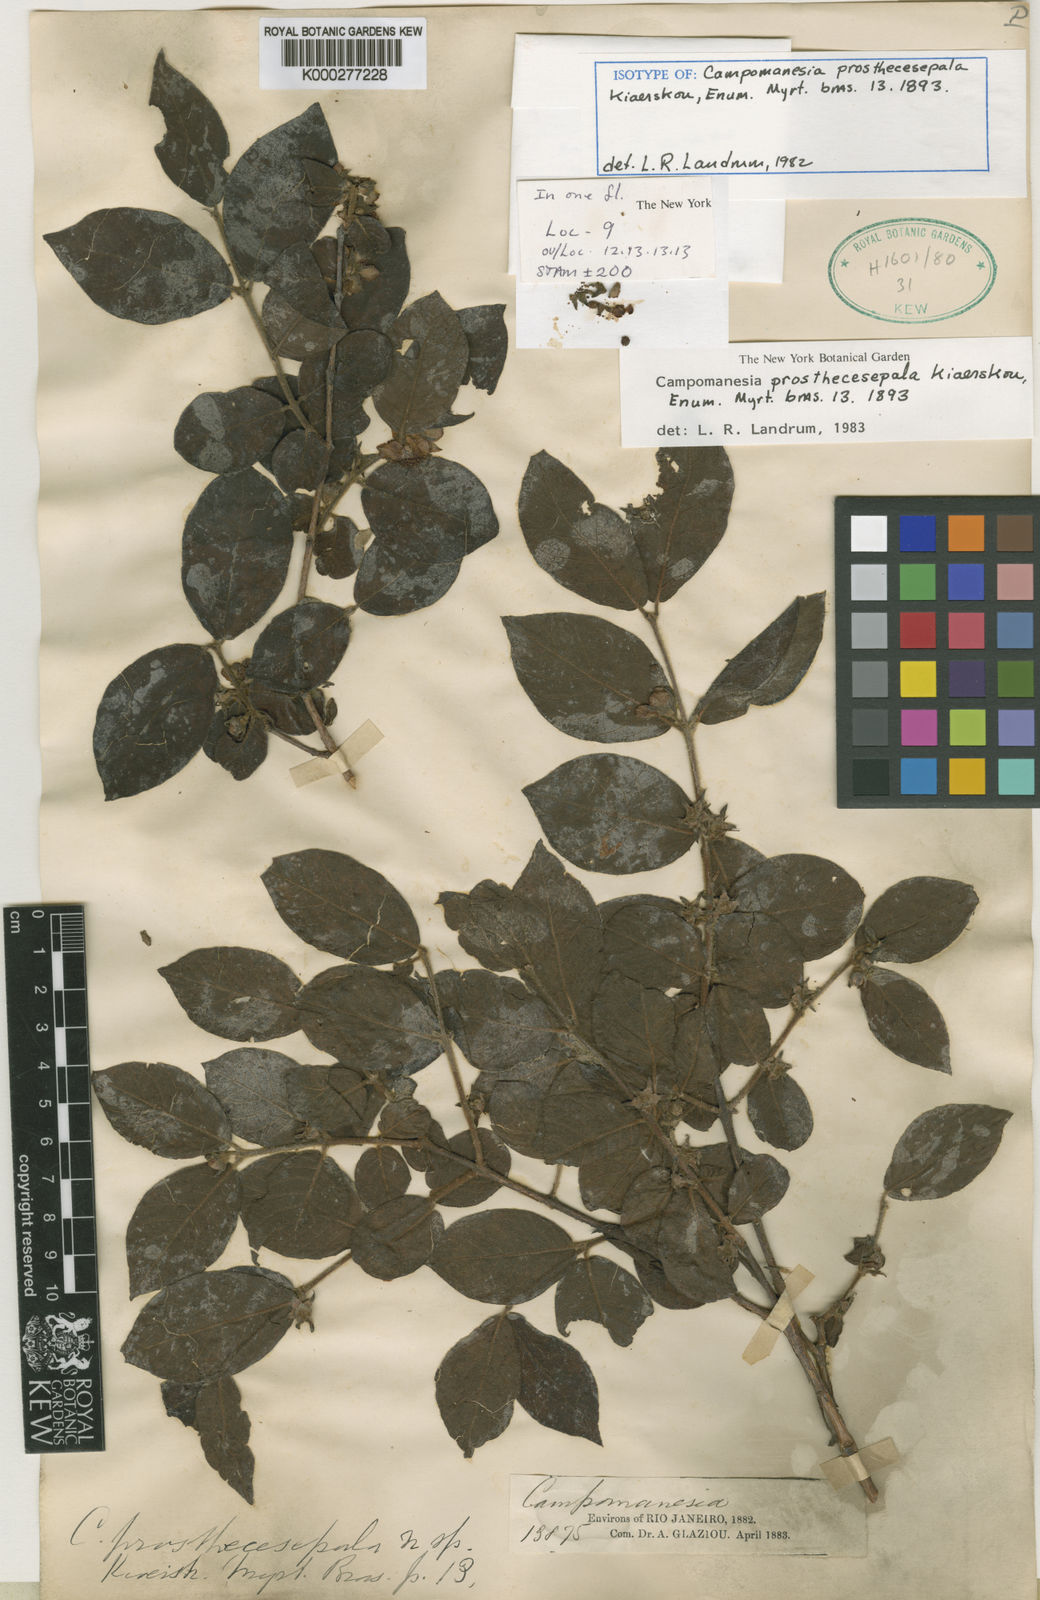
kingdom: Plantae
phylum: Tracheophyta
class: Magnoliopsida
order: Myrtales
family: Myrtaceae
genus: Campomanesia
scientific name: Campomanesia prosthecesepala
